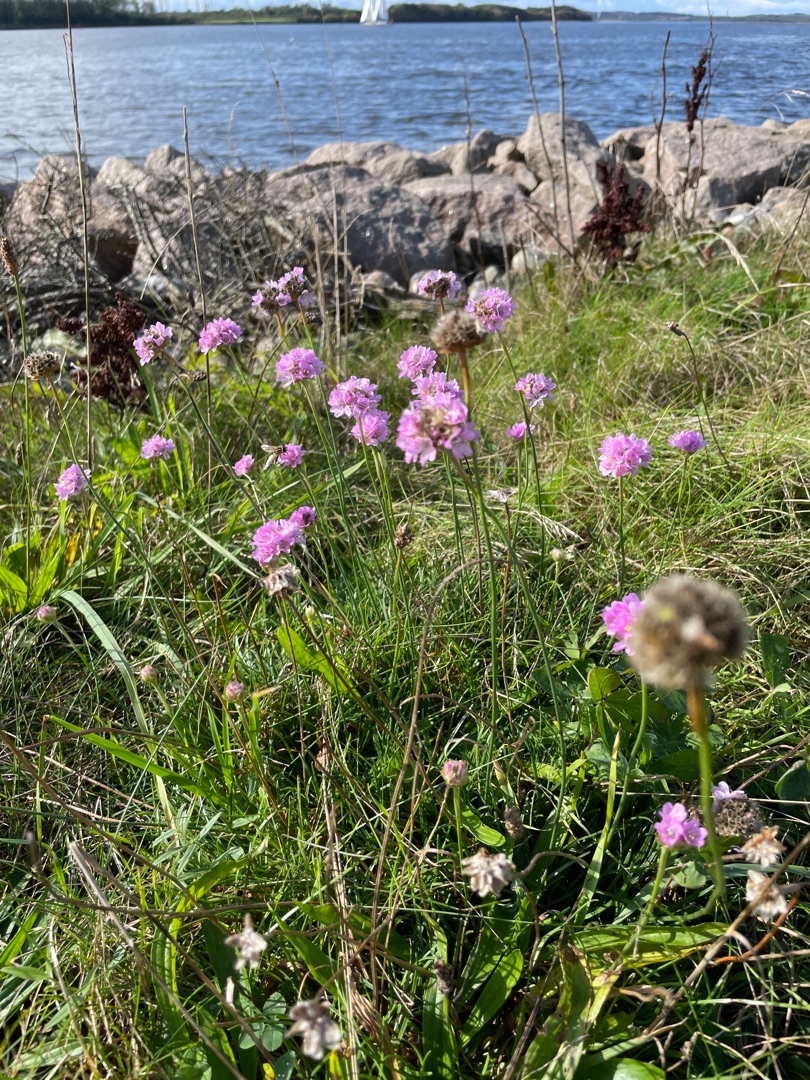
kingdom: Plantae
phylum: Tracheophyta
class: Magnoliopsida
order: Caryophyllales
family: Plumbaginaceae
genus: Armeria
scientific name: Armeria maritima
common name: Engelskgræs
